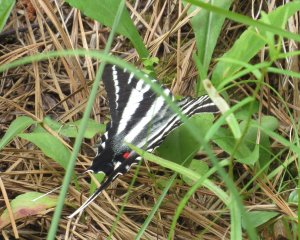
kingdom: Animalia
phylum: Arthropoda
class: Insecta
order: Lepidoptera
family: Papilionidae
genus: Protographium
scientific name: Protographium marcellus
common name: Zebra Swallowtail
